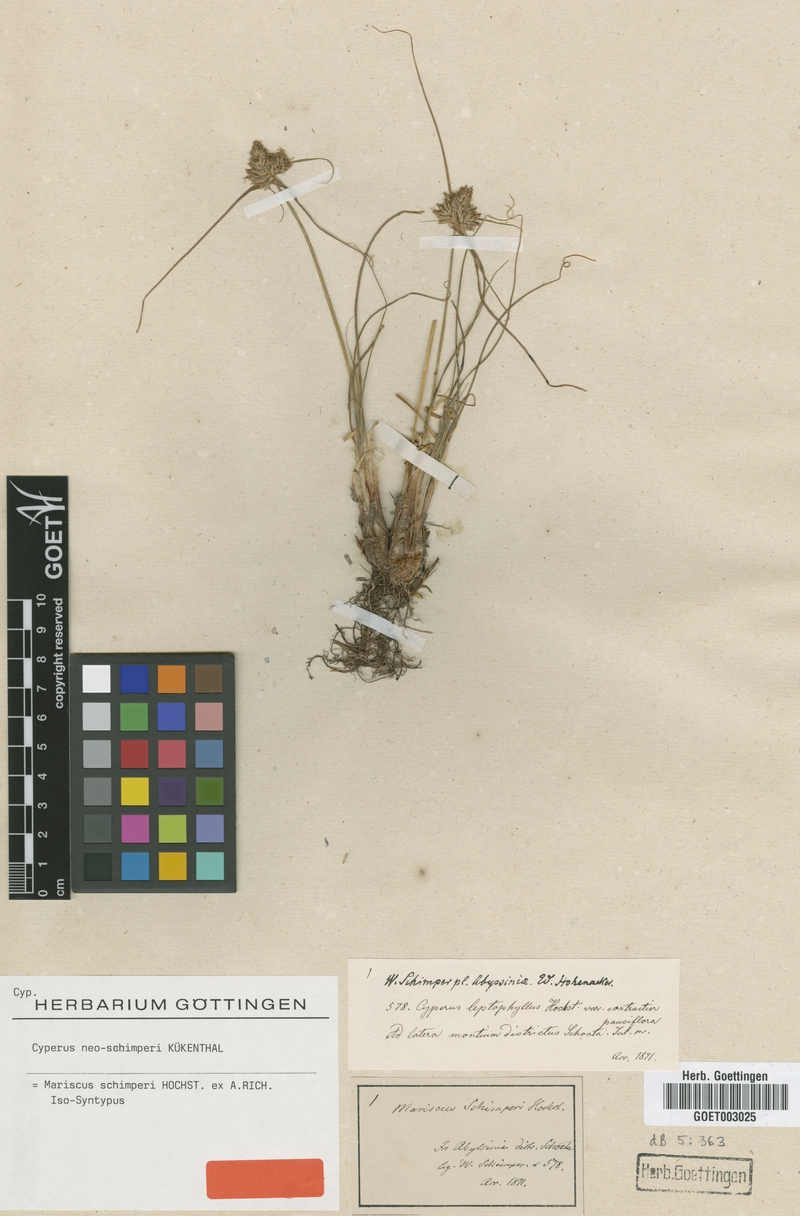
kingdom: Plantae
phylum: Tracheophyta
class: Liliopsida
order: Poales
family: Cyperaceae
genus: Cyperus
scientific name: Cyperus cruentus
